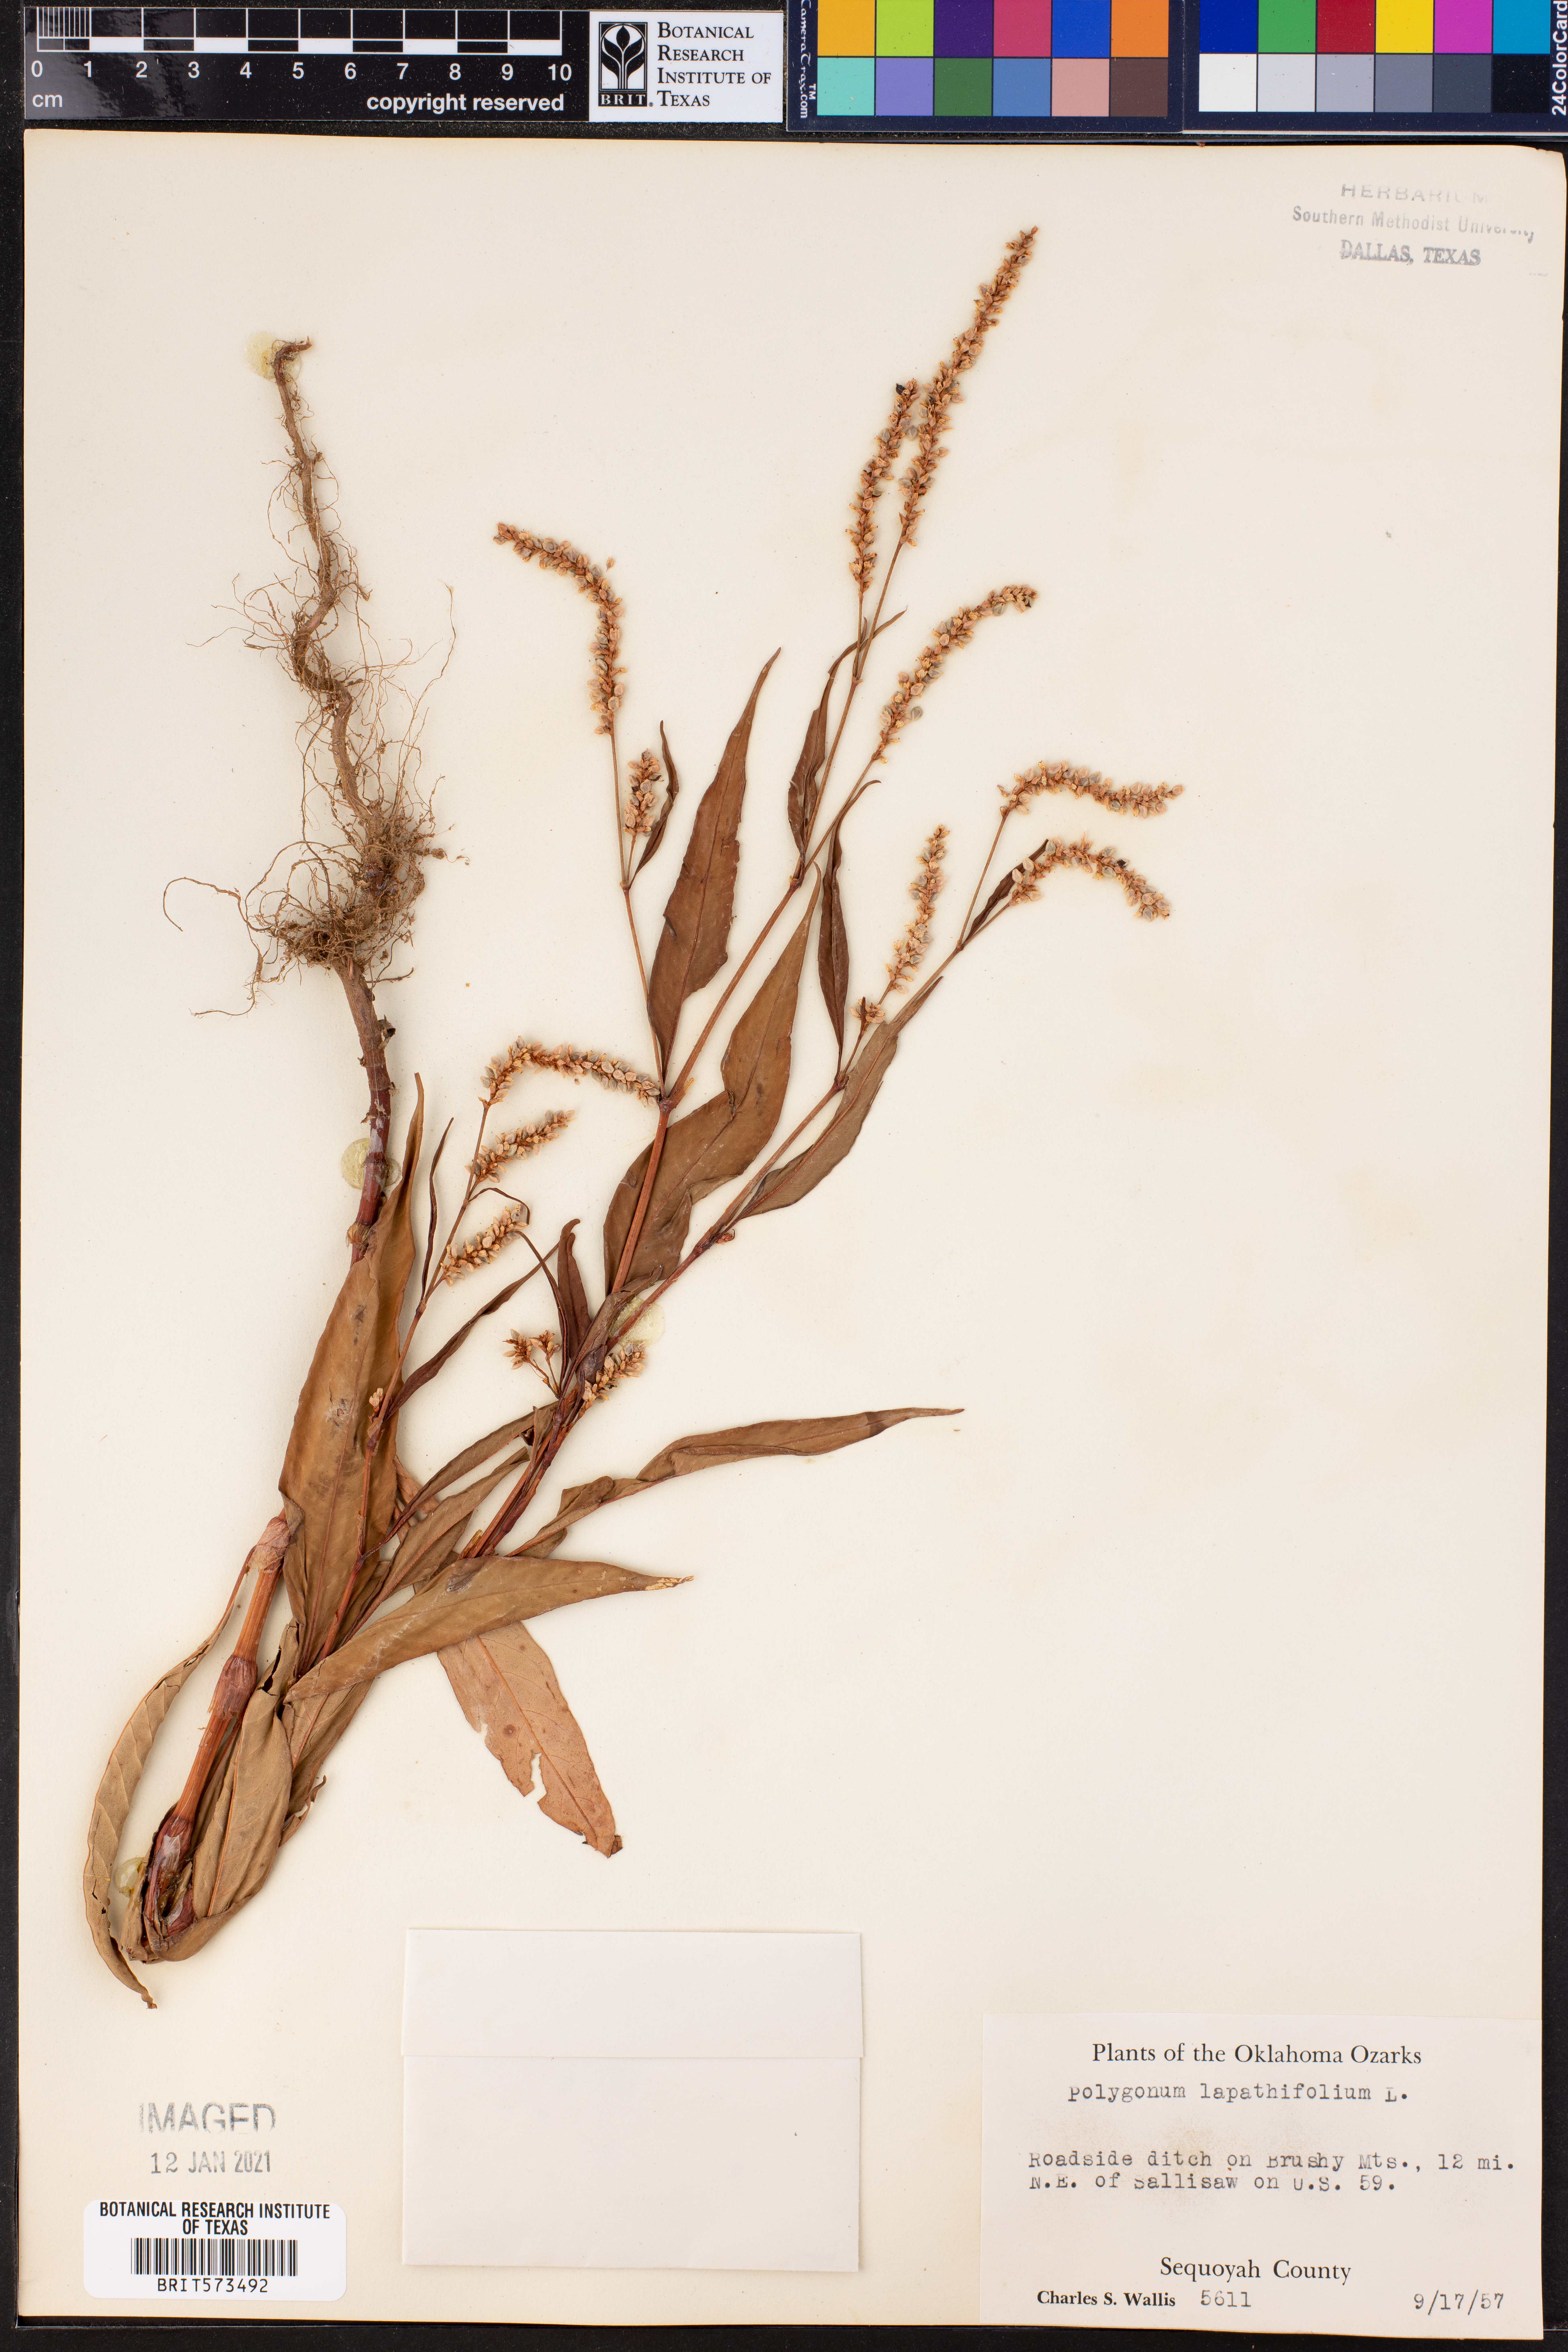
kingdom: Plantae
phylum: Tracheophyta
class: Magnoliopsida
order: Caryophyllales
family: Polygonaceae
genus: Persicaria
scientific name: Persicaria lapathifolia
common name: Curlytop knotweed
